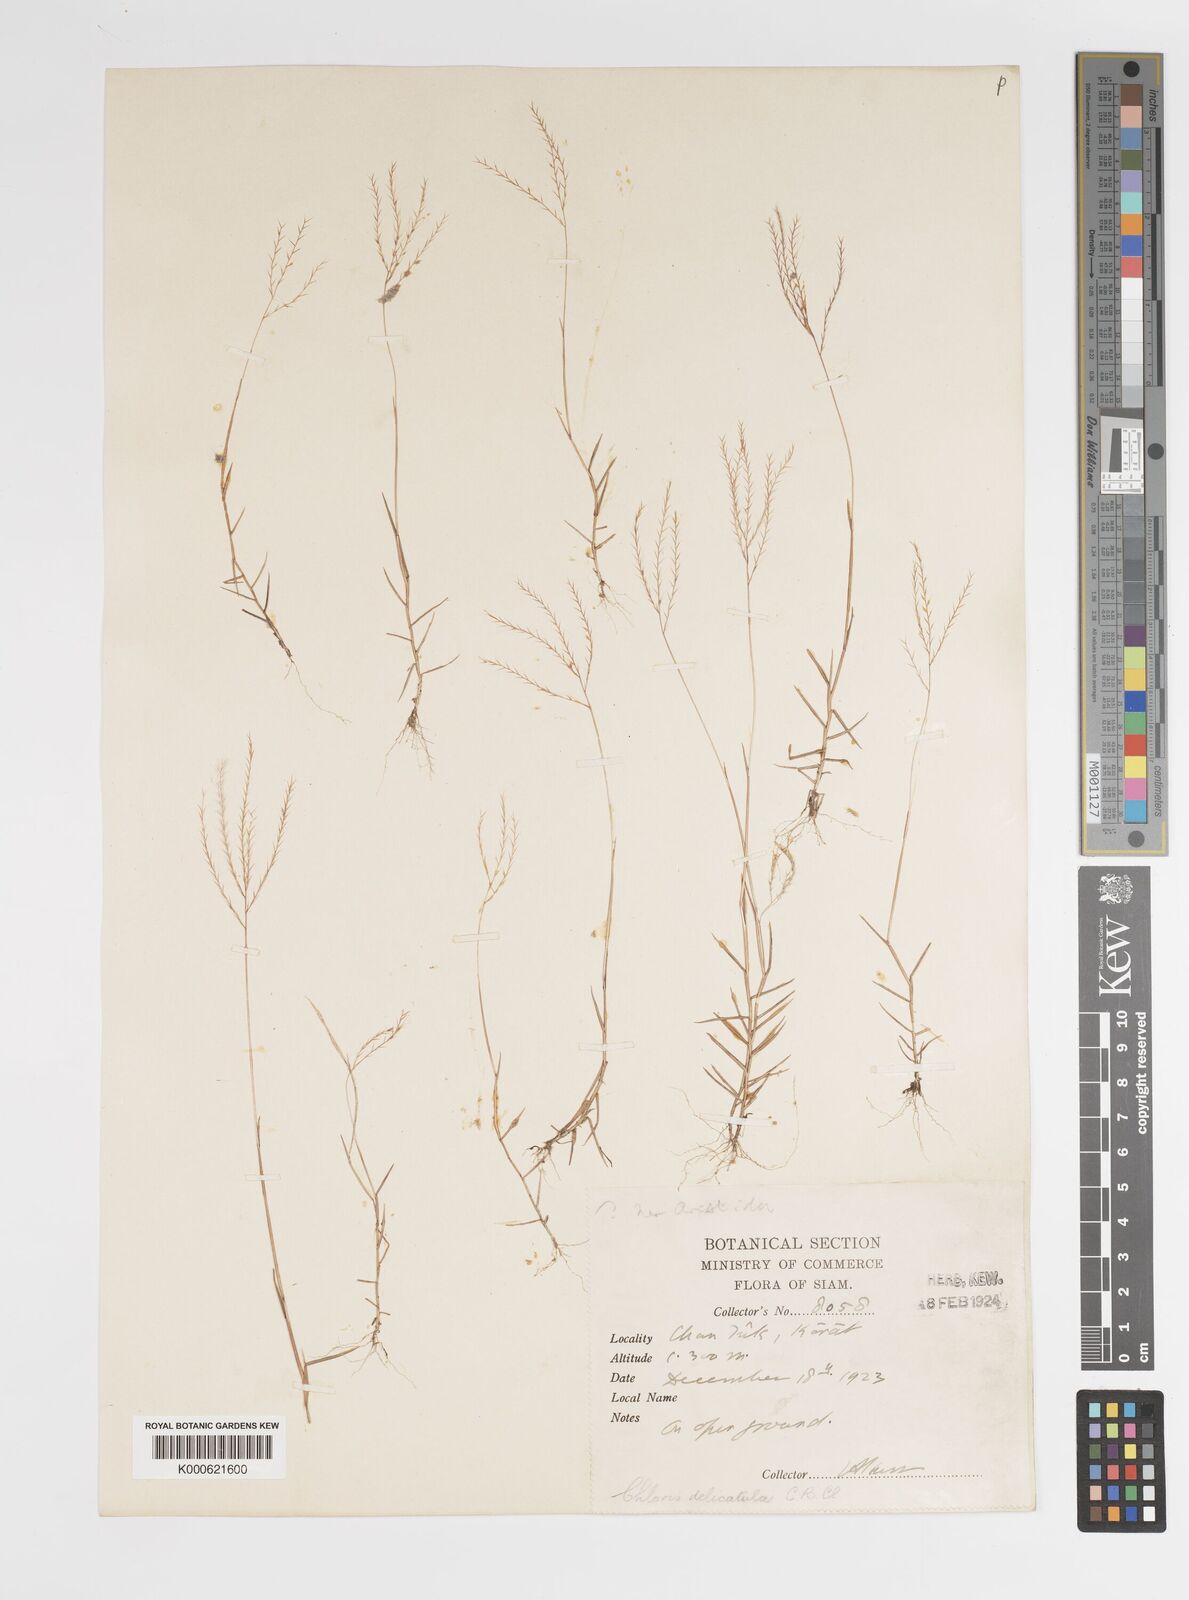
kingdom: Plantae
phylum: Tracheophyta
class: Liliopsida
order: Poales
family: Poaceae
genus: Gymnopogon
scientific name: Gymnopogon delicatulus
